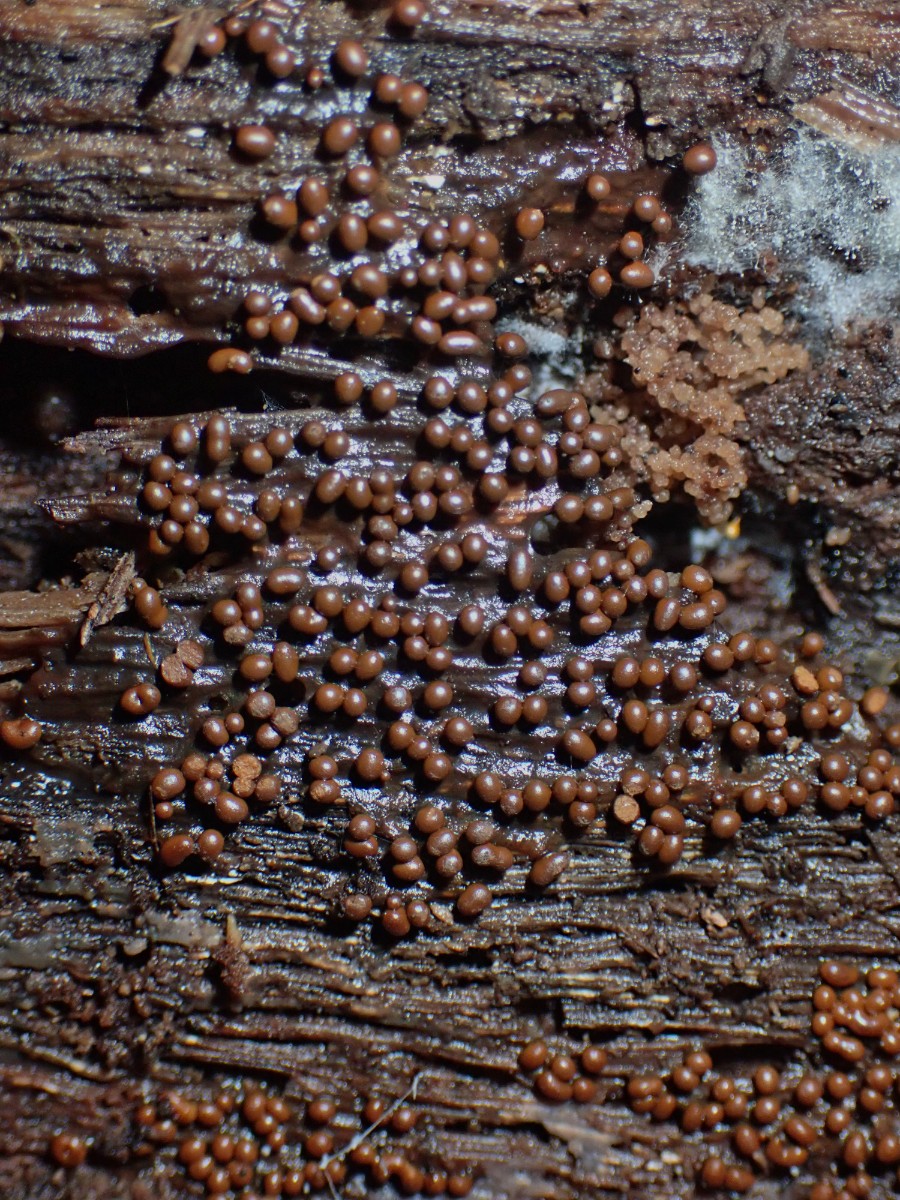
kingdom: Protozoa
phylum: Mycetozoa
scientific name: Mycetozoa
